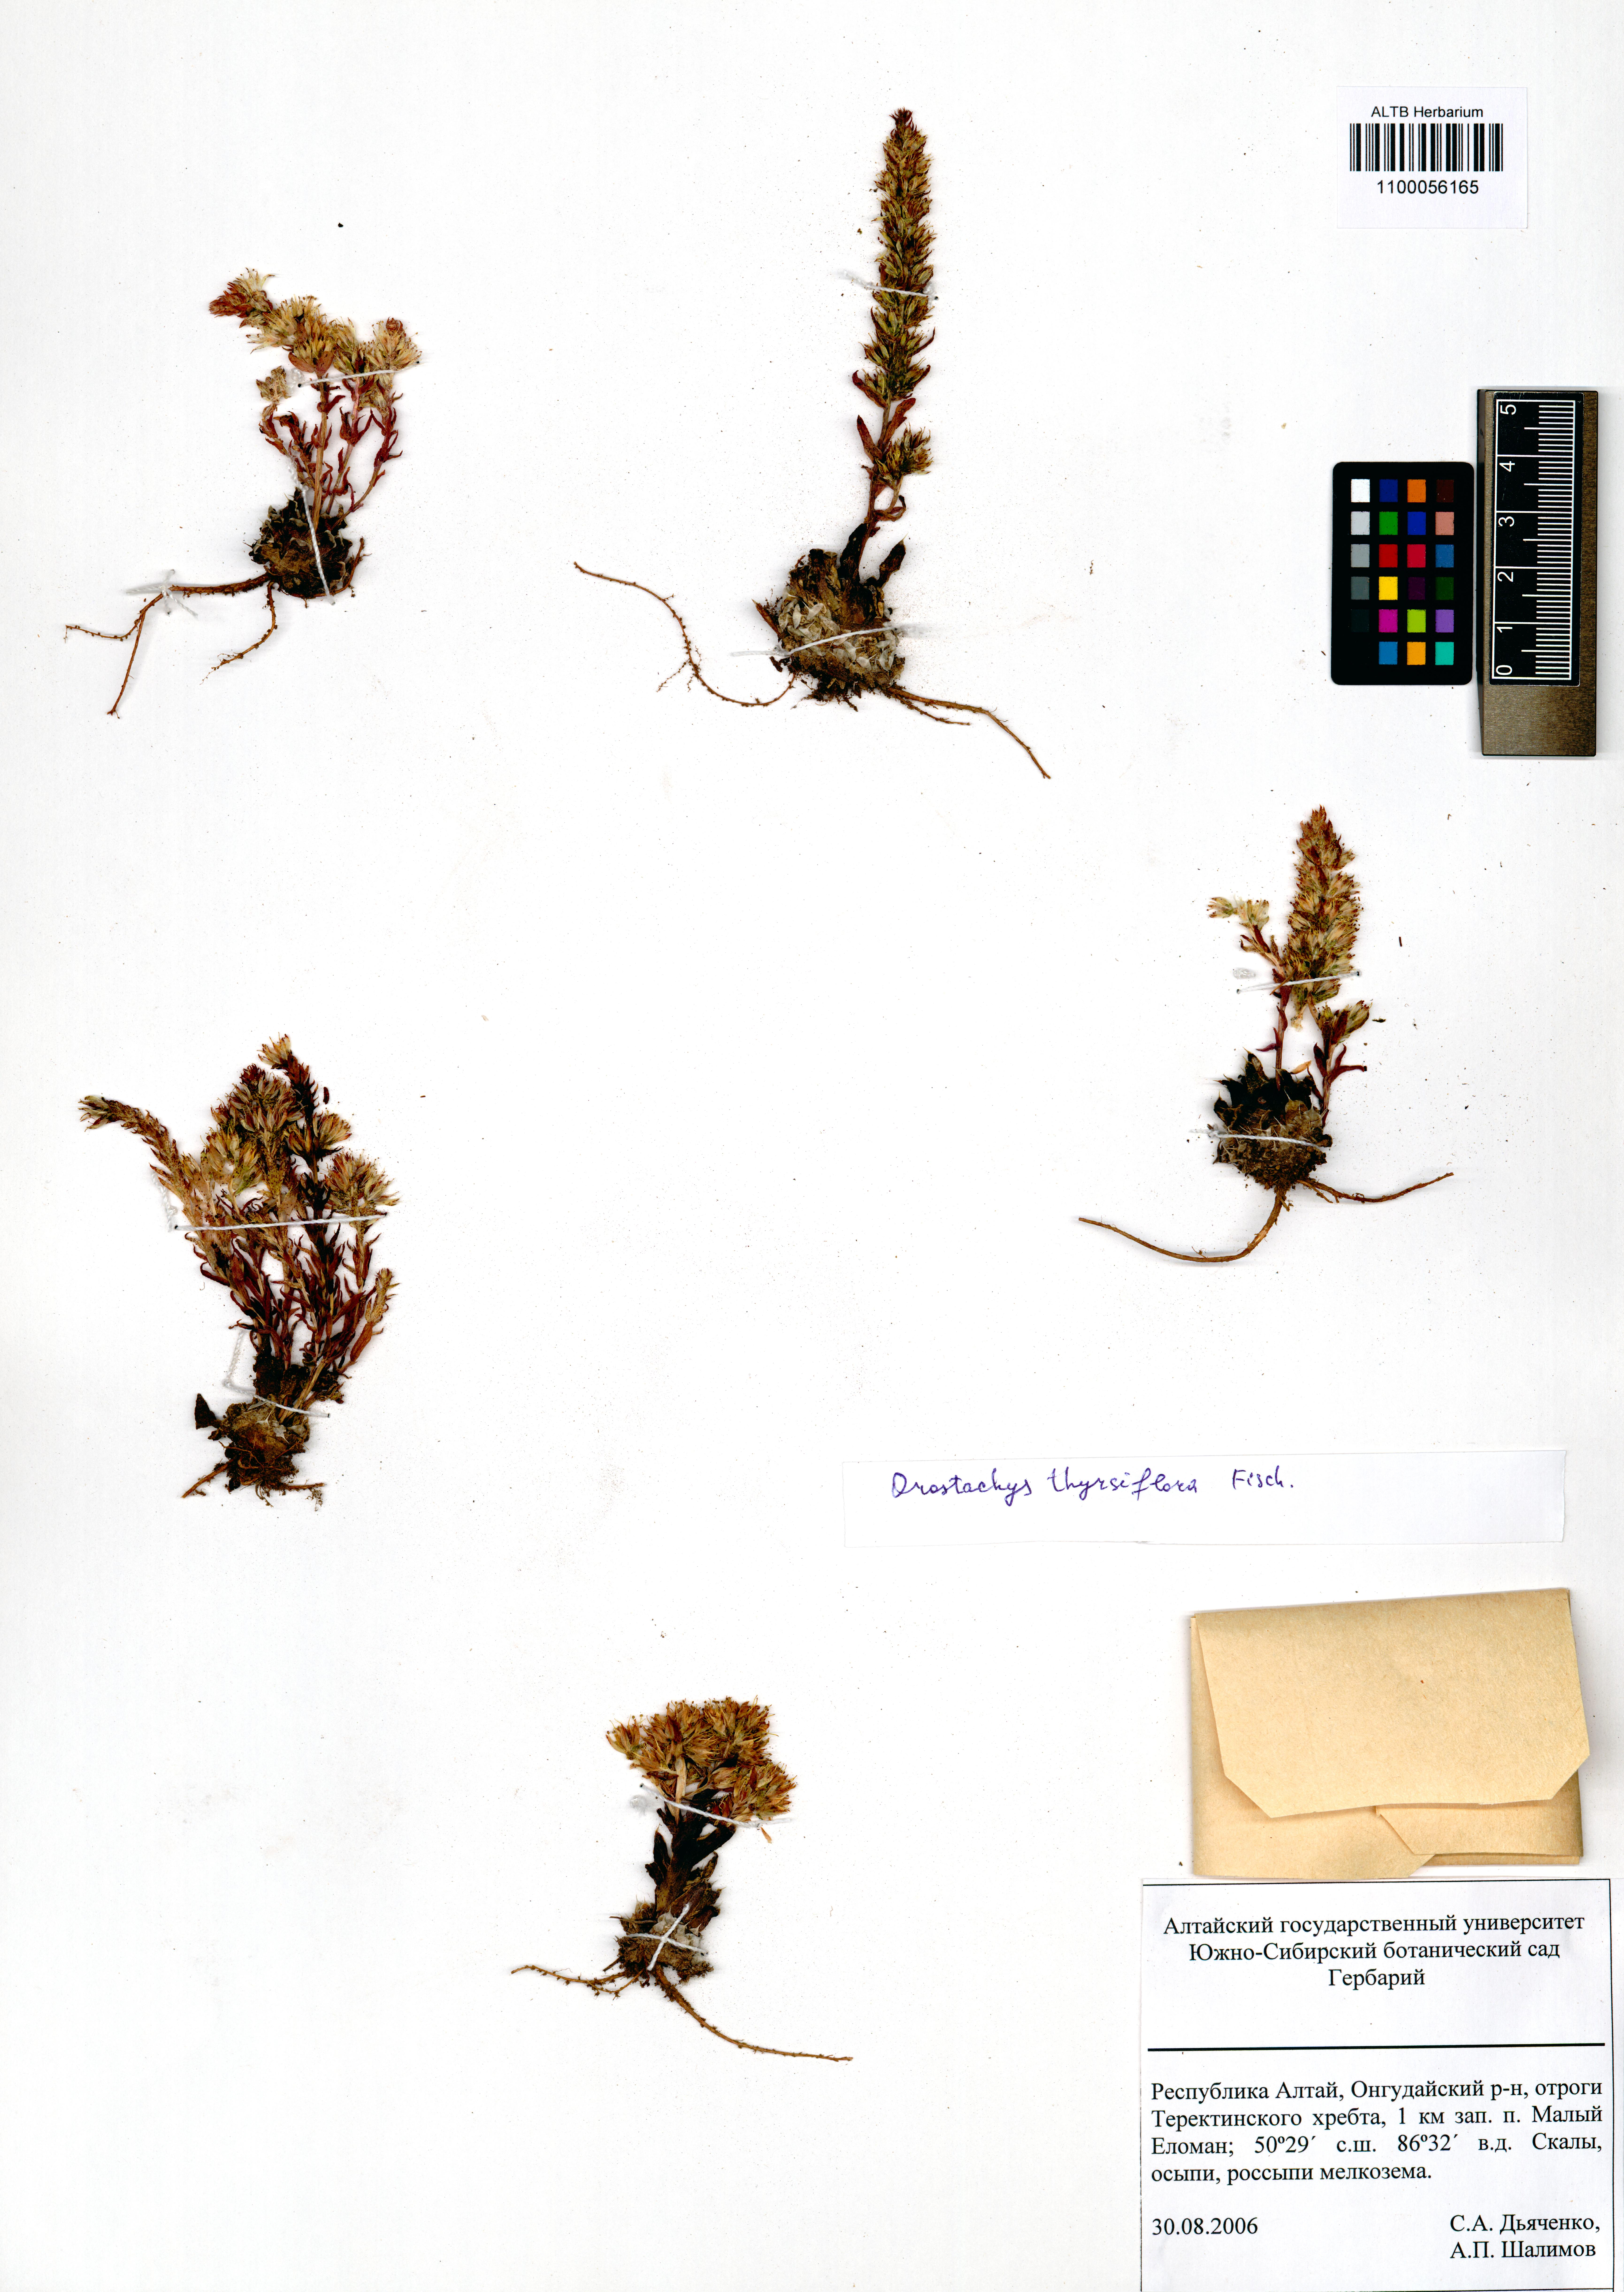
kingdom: Plantae
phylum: Tracheophyta
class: Magnoliopsida
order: Saxifragales
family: Crassulaceae
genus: Orostachys
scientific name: Orostachys thyrsiflora
